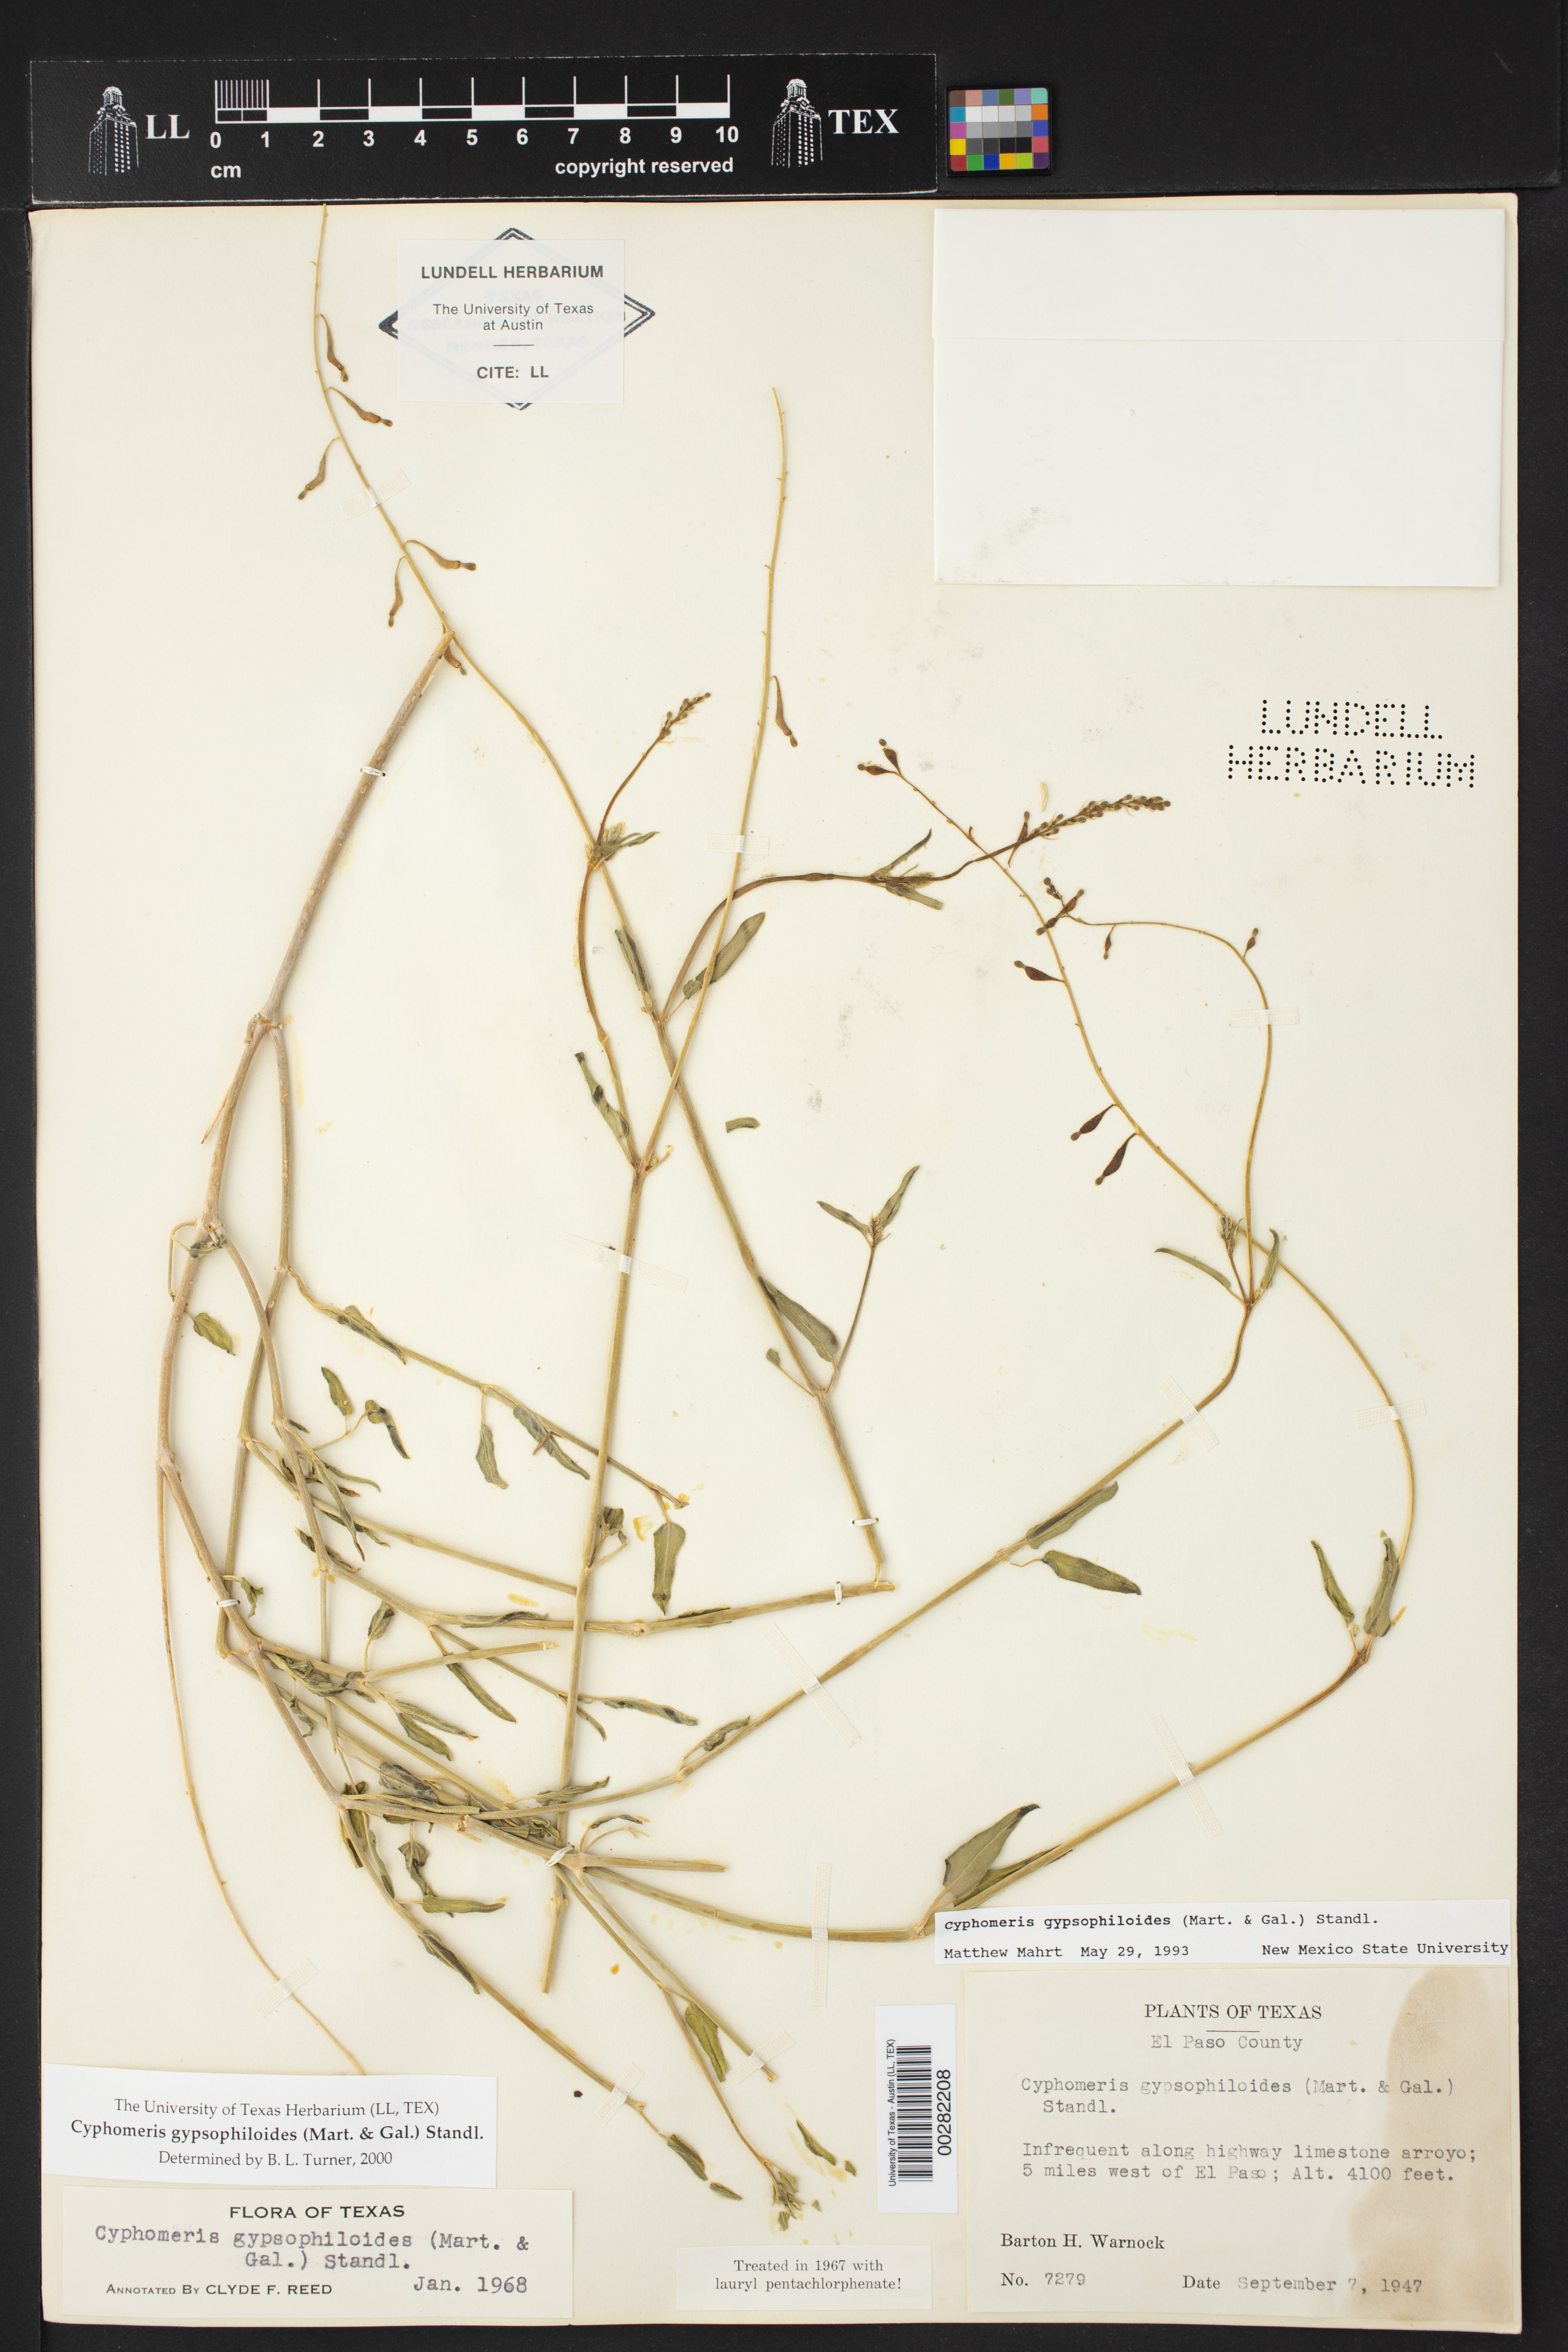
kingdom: Plantae
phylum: Tracheophyta
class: Magnoliopsida
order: Caryophyllales
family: Nyctaginaceae
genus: Cyphomeris
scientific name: Cyphomeris gypsophiloides
